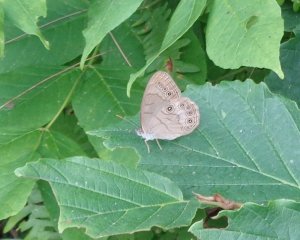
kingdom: Animalia
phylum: Arthropoda
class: Insecta
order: Lepidoptera
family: Nymphalidae
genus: Lethe
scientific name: Lethe eurydice
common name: Appalachian Eyed Brown
